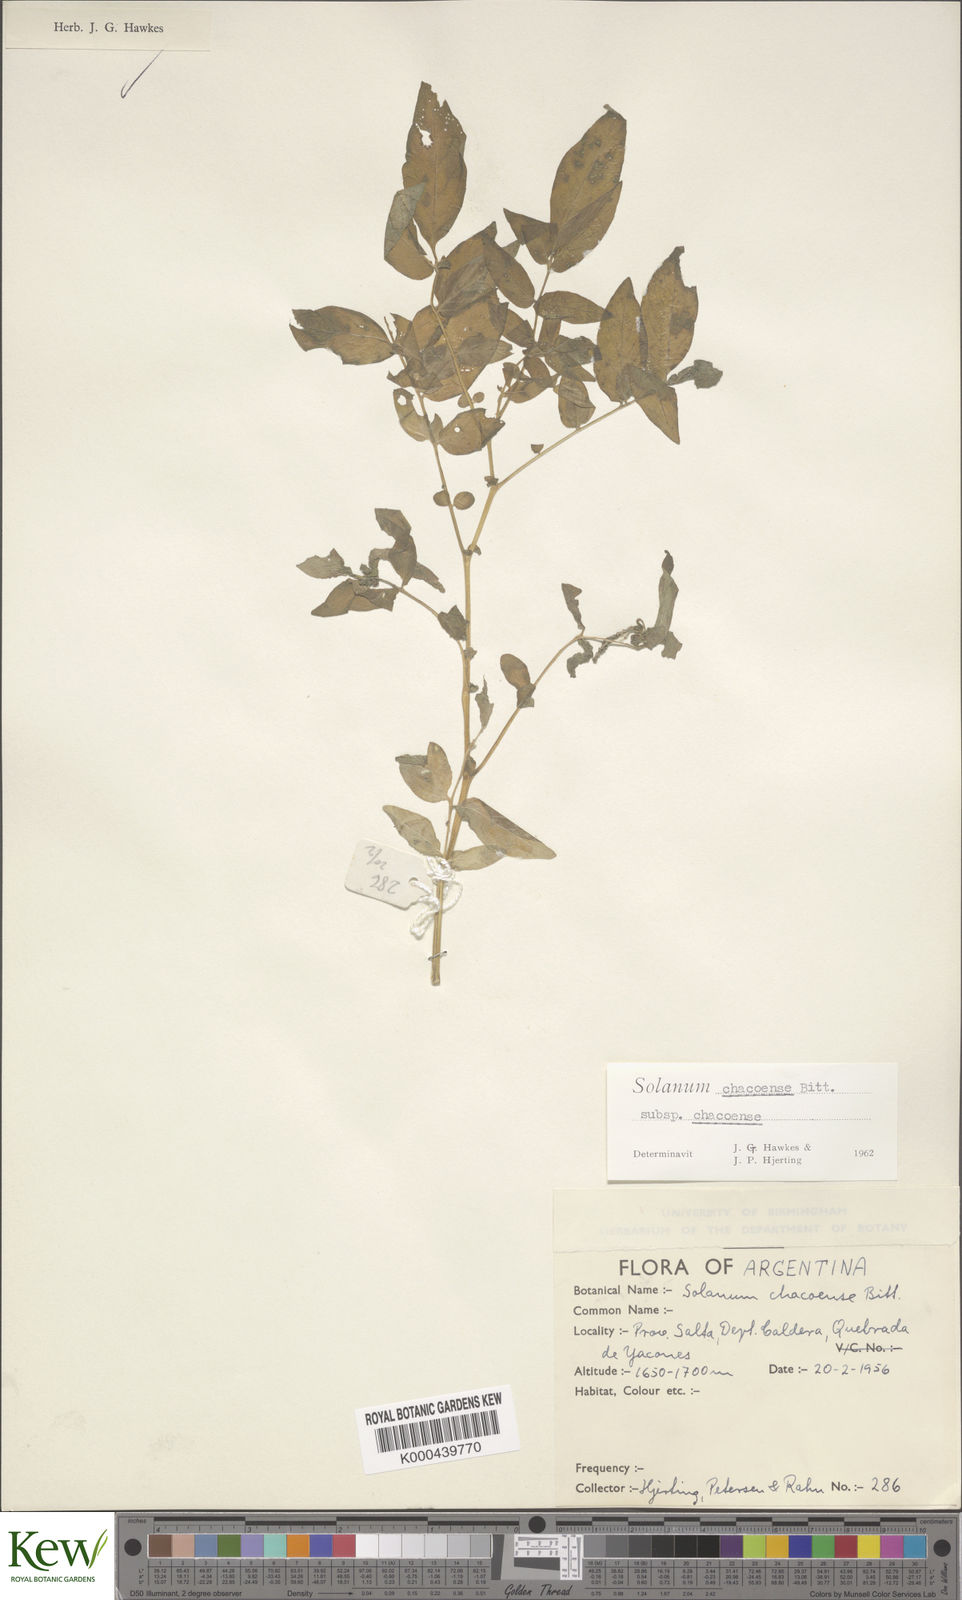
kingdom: Plantae
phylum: Tracheophyta
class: Magnoliopsida
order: Solanales
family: Solanaceae
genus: Solanum
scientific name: Solanum chacoense
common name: Chaco potato
